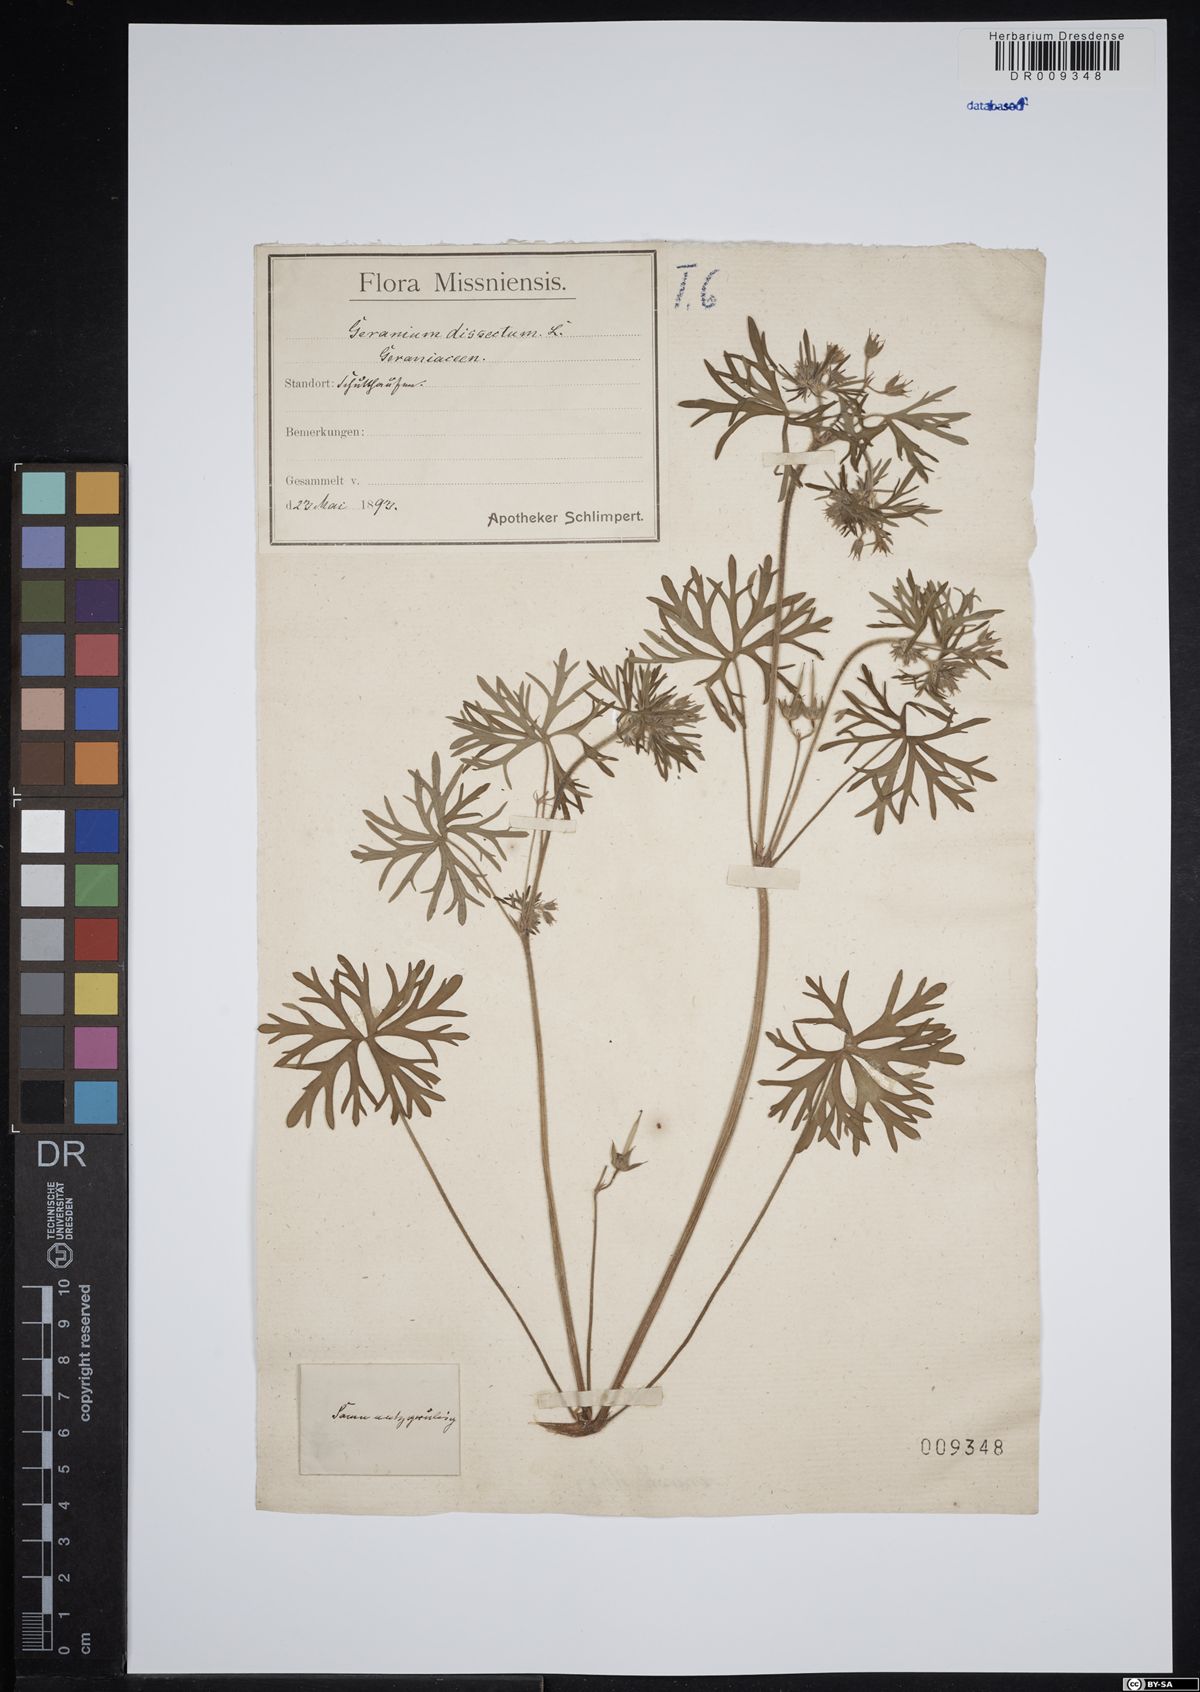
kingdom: Plantae
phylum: Tracheophyta
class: Magnoliopsida
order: Geraniales
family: Geraniaceae
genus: Geranium
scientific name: Geranium dissectum
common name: Cut-leaved crane's-bill
